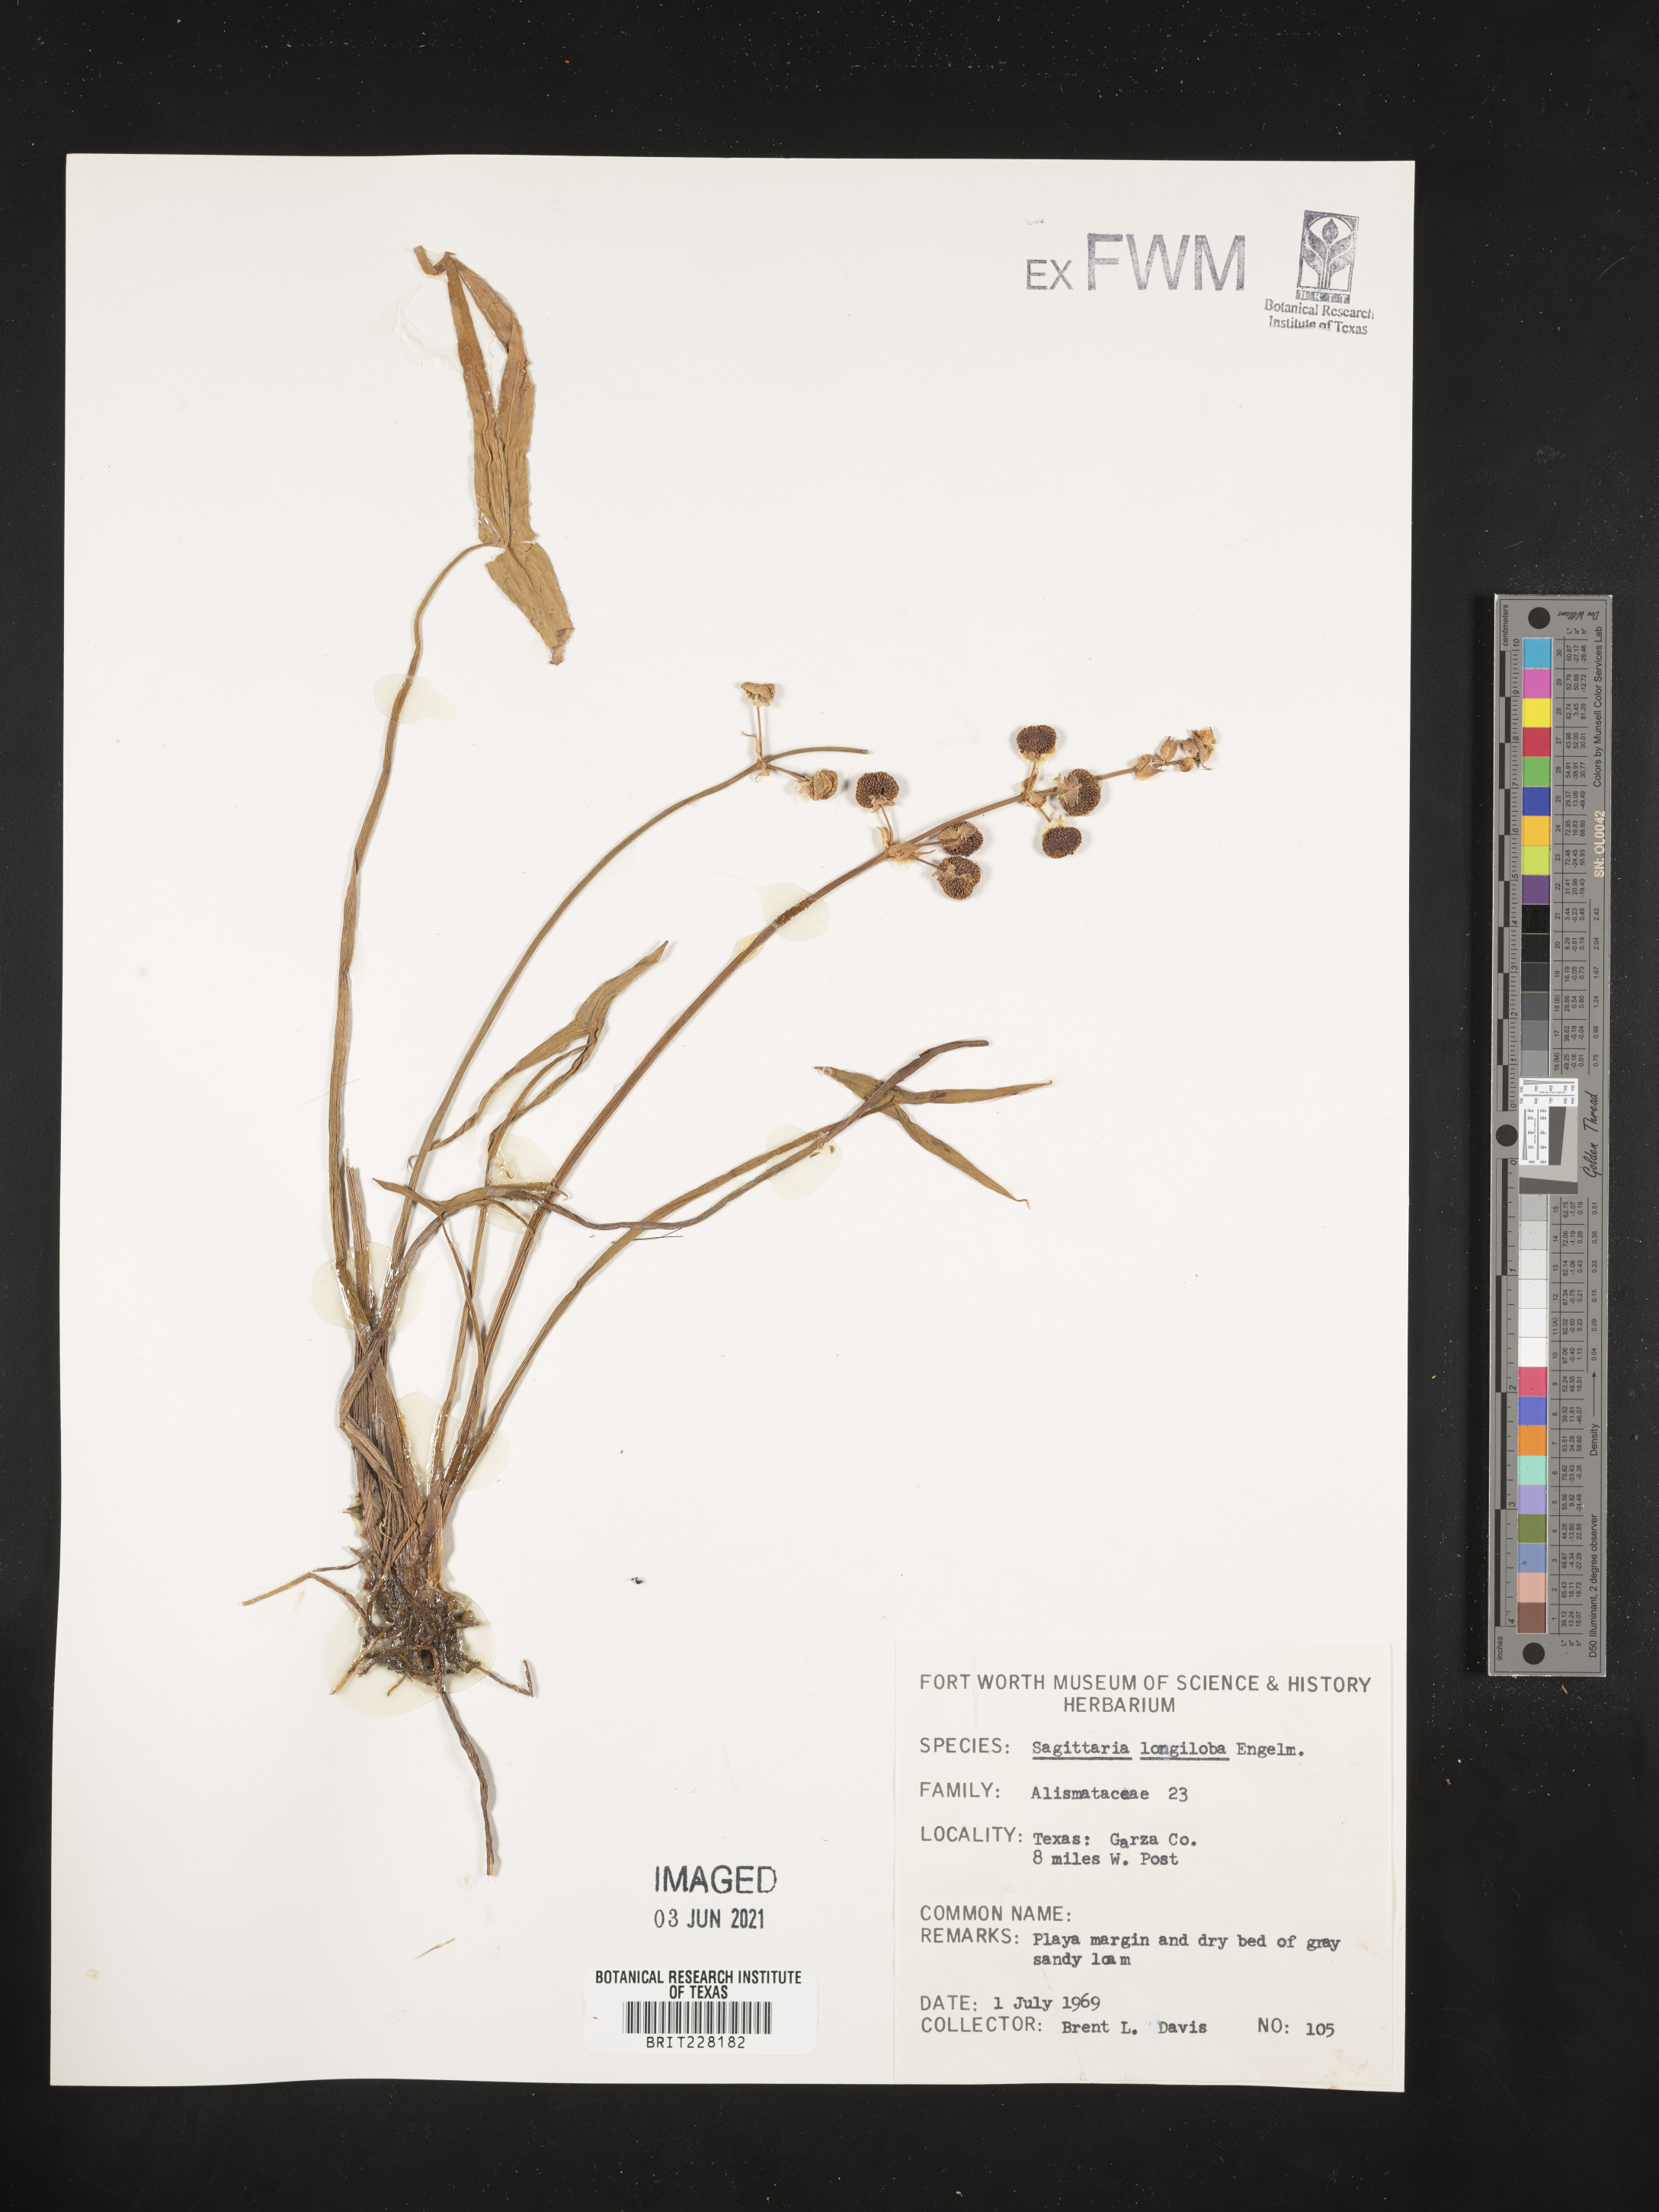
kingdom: Plantae
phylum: Tracheophyta
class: Liliopsida
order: Alismatales
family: Alismataceae
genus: Sagittaria
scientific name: Sagittaria longiloba
